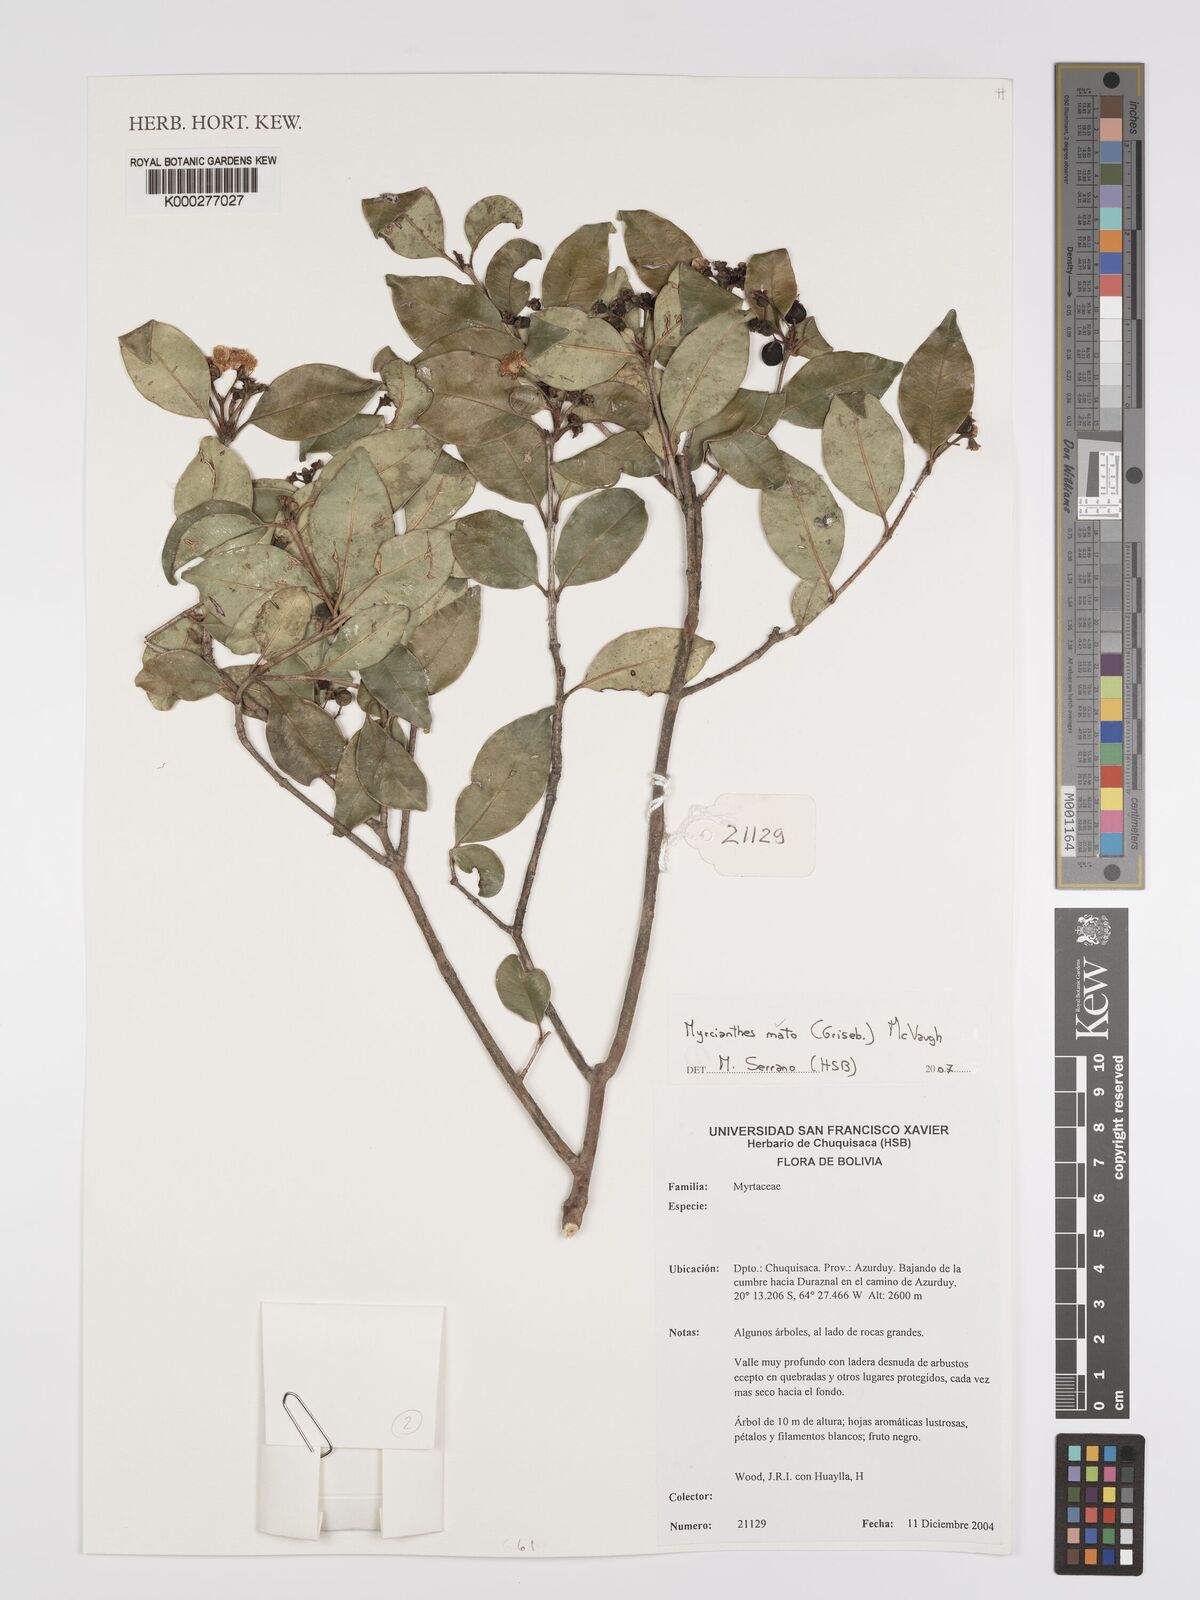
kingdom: Plantae
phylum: Tracheophyta
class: Magnoliopsida
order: Myrtales
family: Myrtaceae
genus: Myrcianthes
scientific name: Myrcianthes mato
